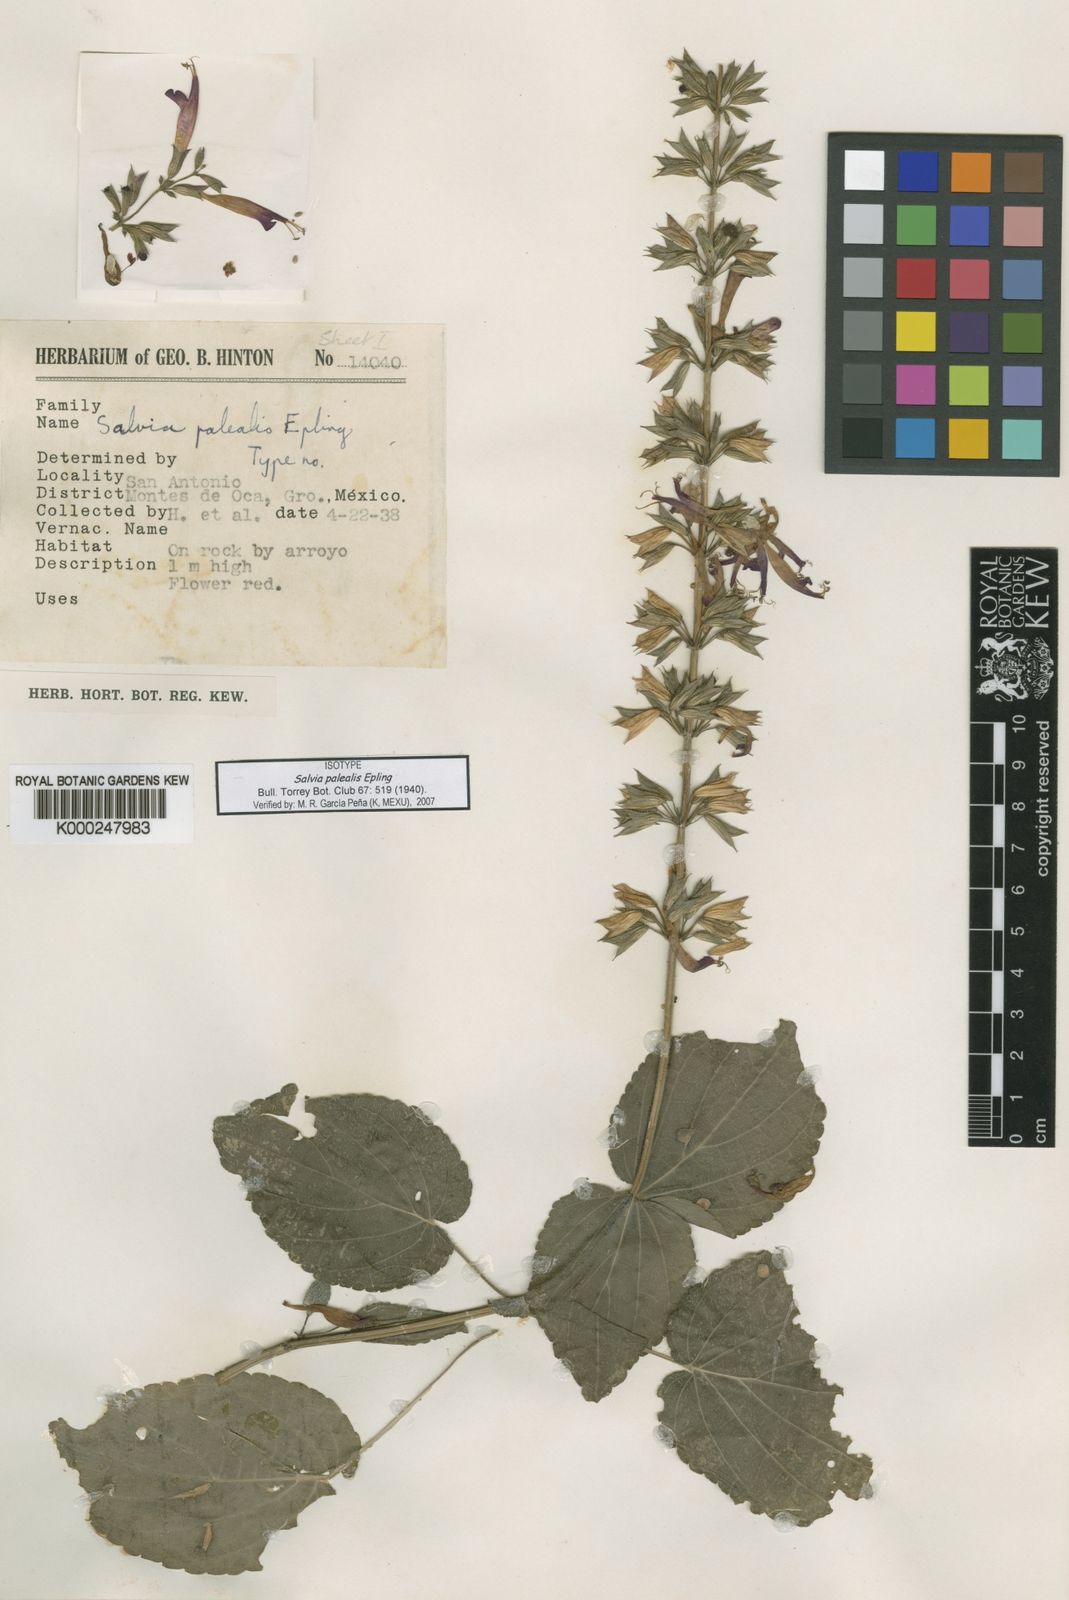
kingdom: Plantae
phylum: Tracheophyta
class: Magnoliopsida
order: Lamiales
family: Lamiaceae
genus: Salvia
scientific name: Salvia palealis
